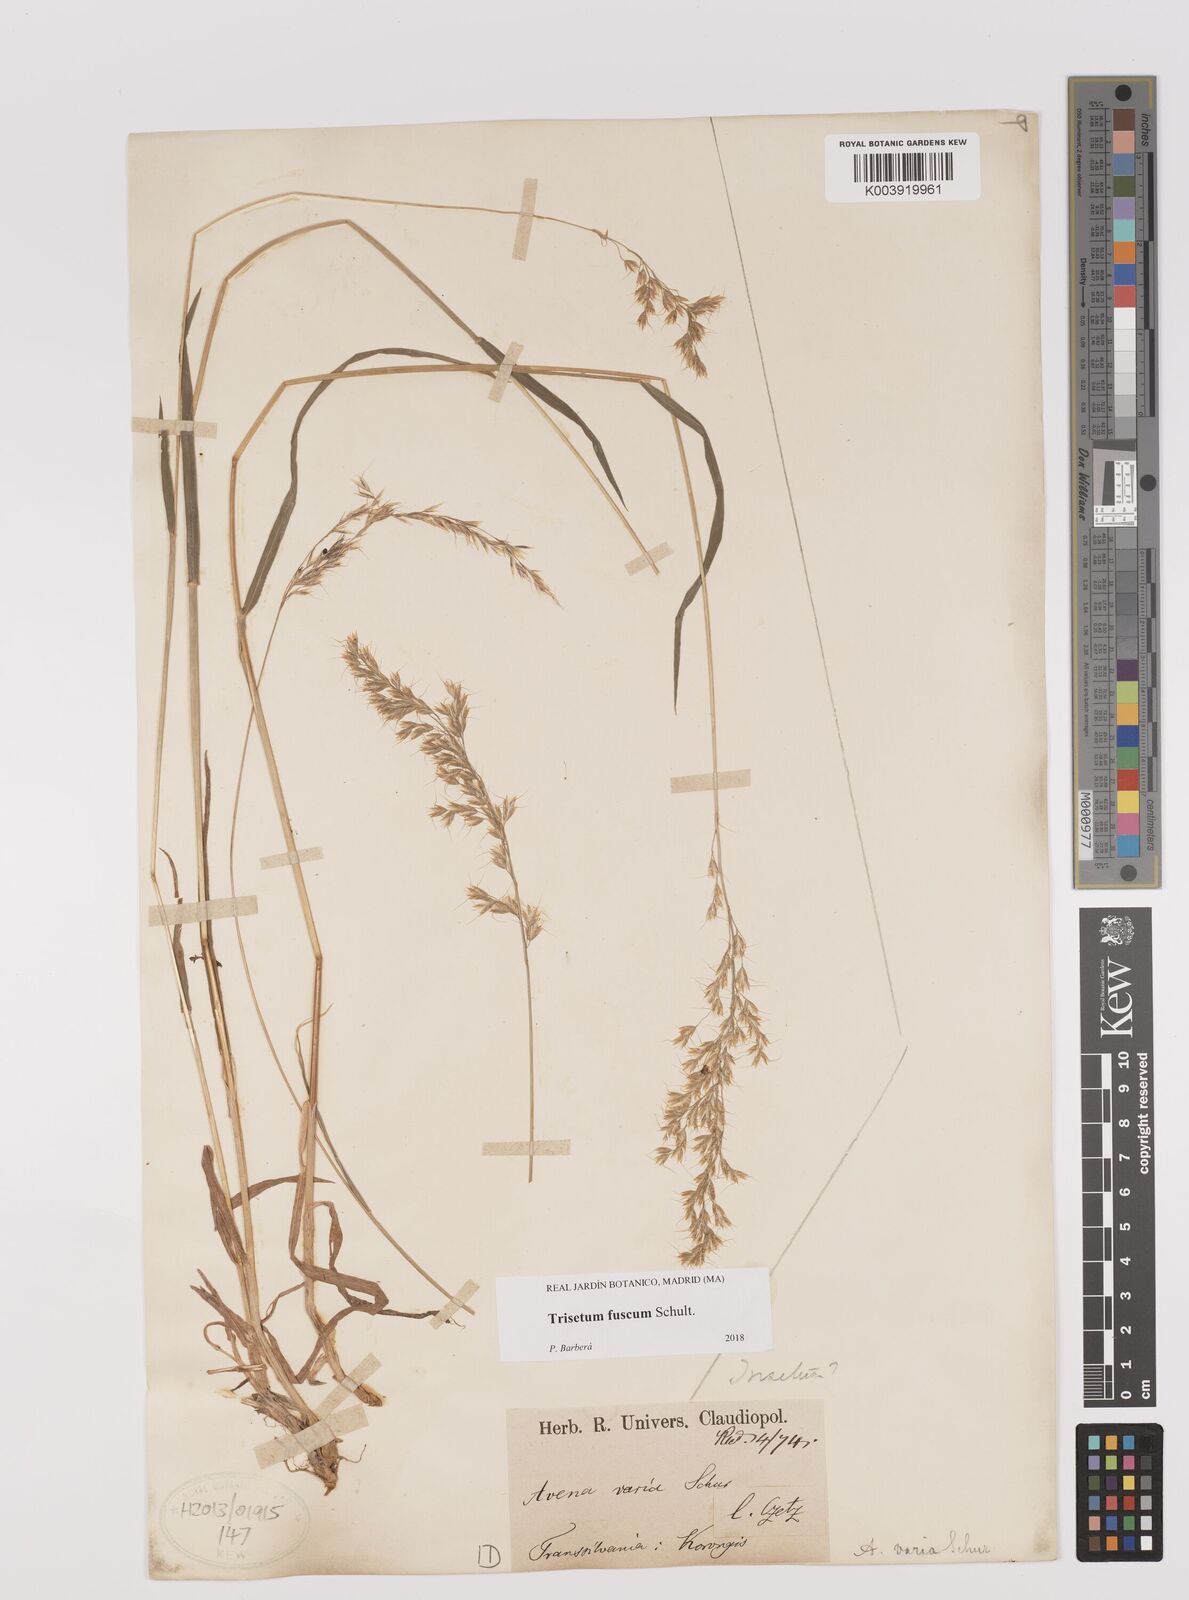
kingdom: Plantae
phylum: Tracheophyta
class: Liliopsida
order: Poales
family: Poaceae
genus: Trisetum
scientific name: Trisetum fuscum
